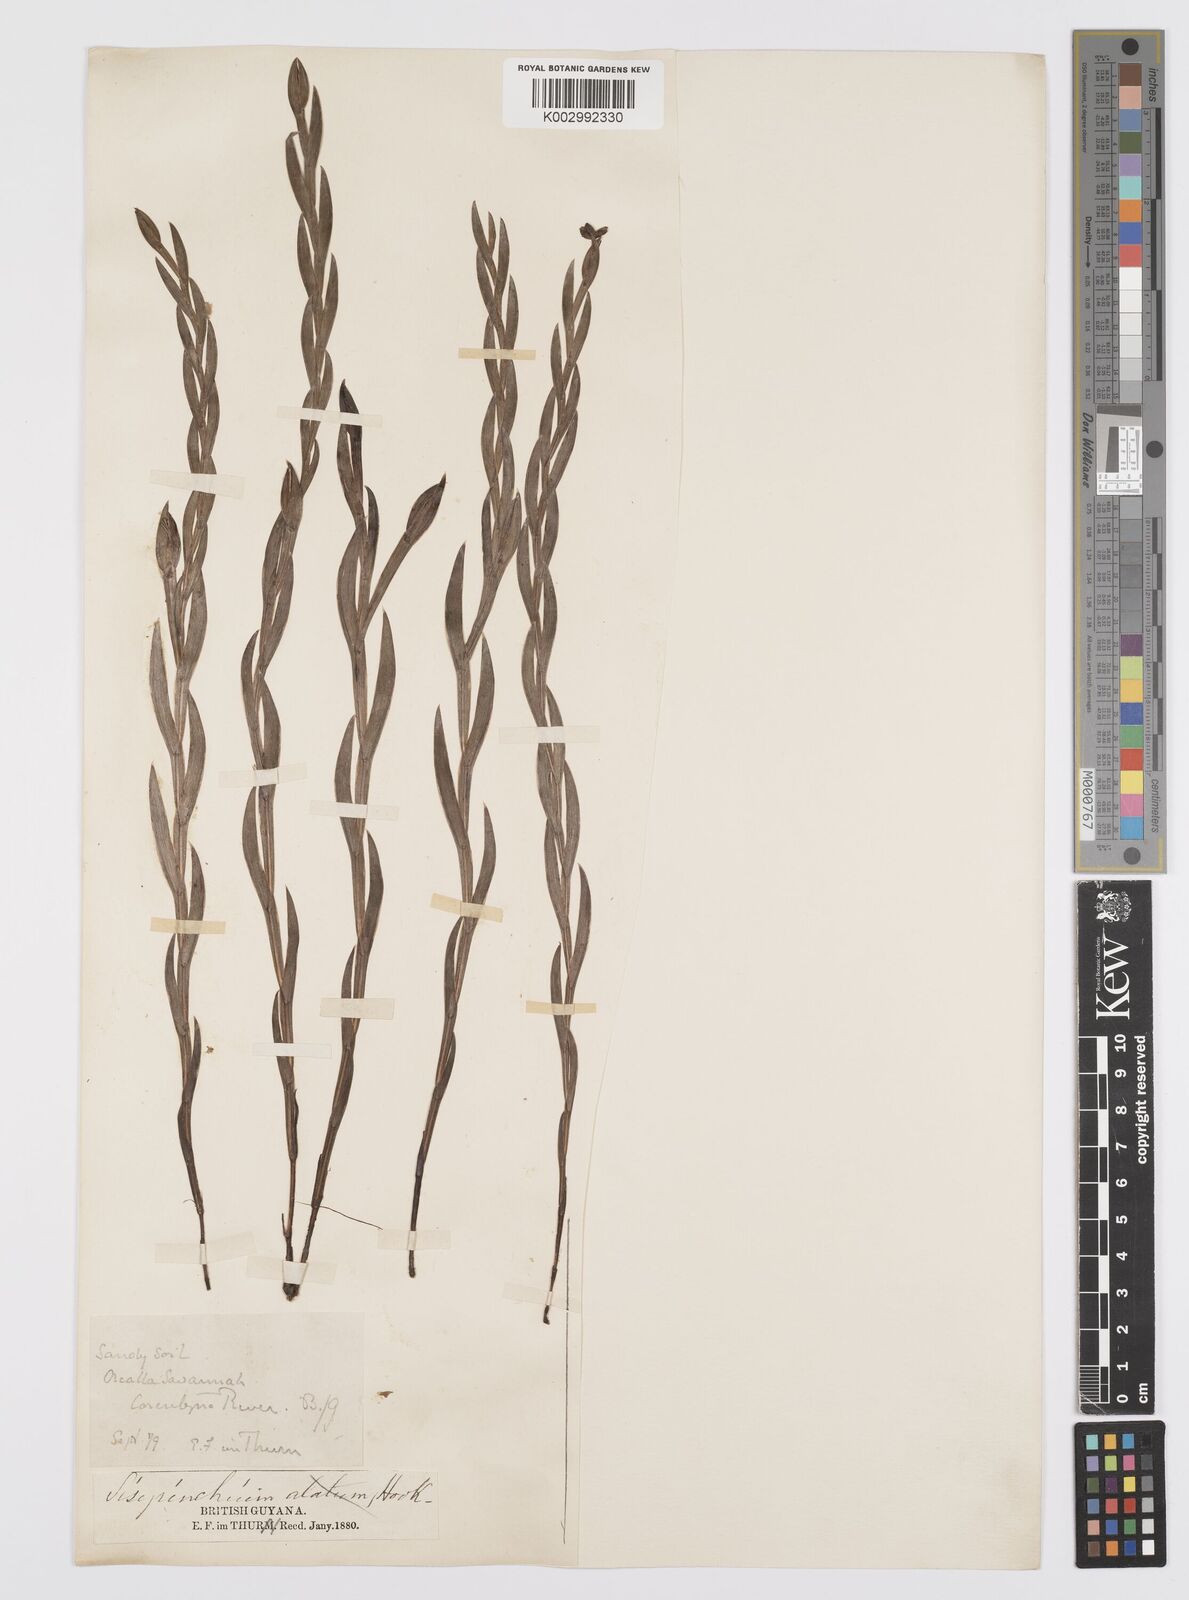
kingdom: Plantae
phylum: Tracheophyta
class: Liliopsida
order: Asparagales
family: Iridaceae
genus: Sisyrinchium
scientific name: Sisyrinchium vaginatum
